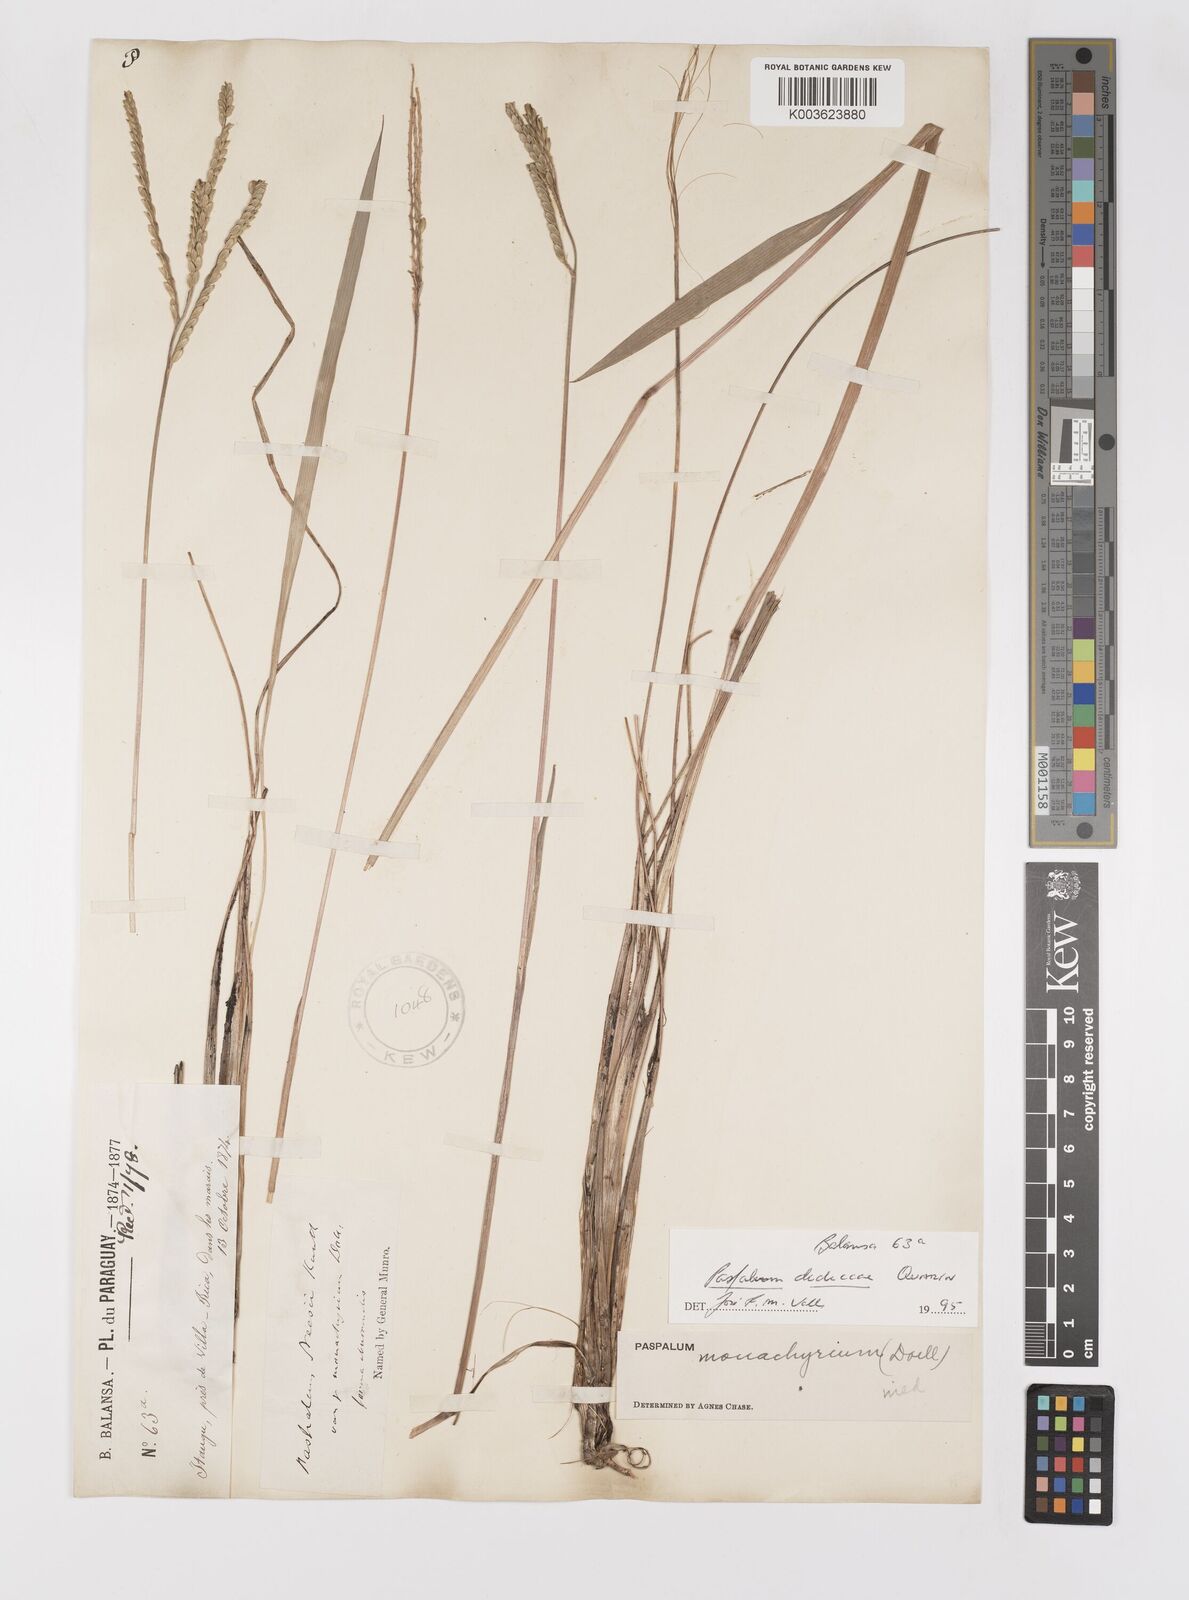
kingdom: Plantae
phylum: Tracheophyta
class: Liliopsida
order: Poales
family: Poaceae
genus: Paspalum
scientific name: Paspalum dedeccae
